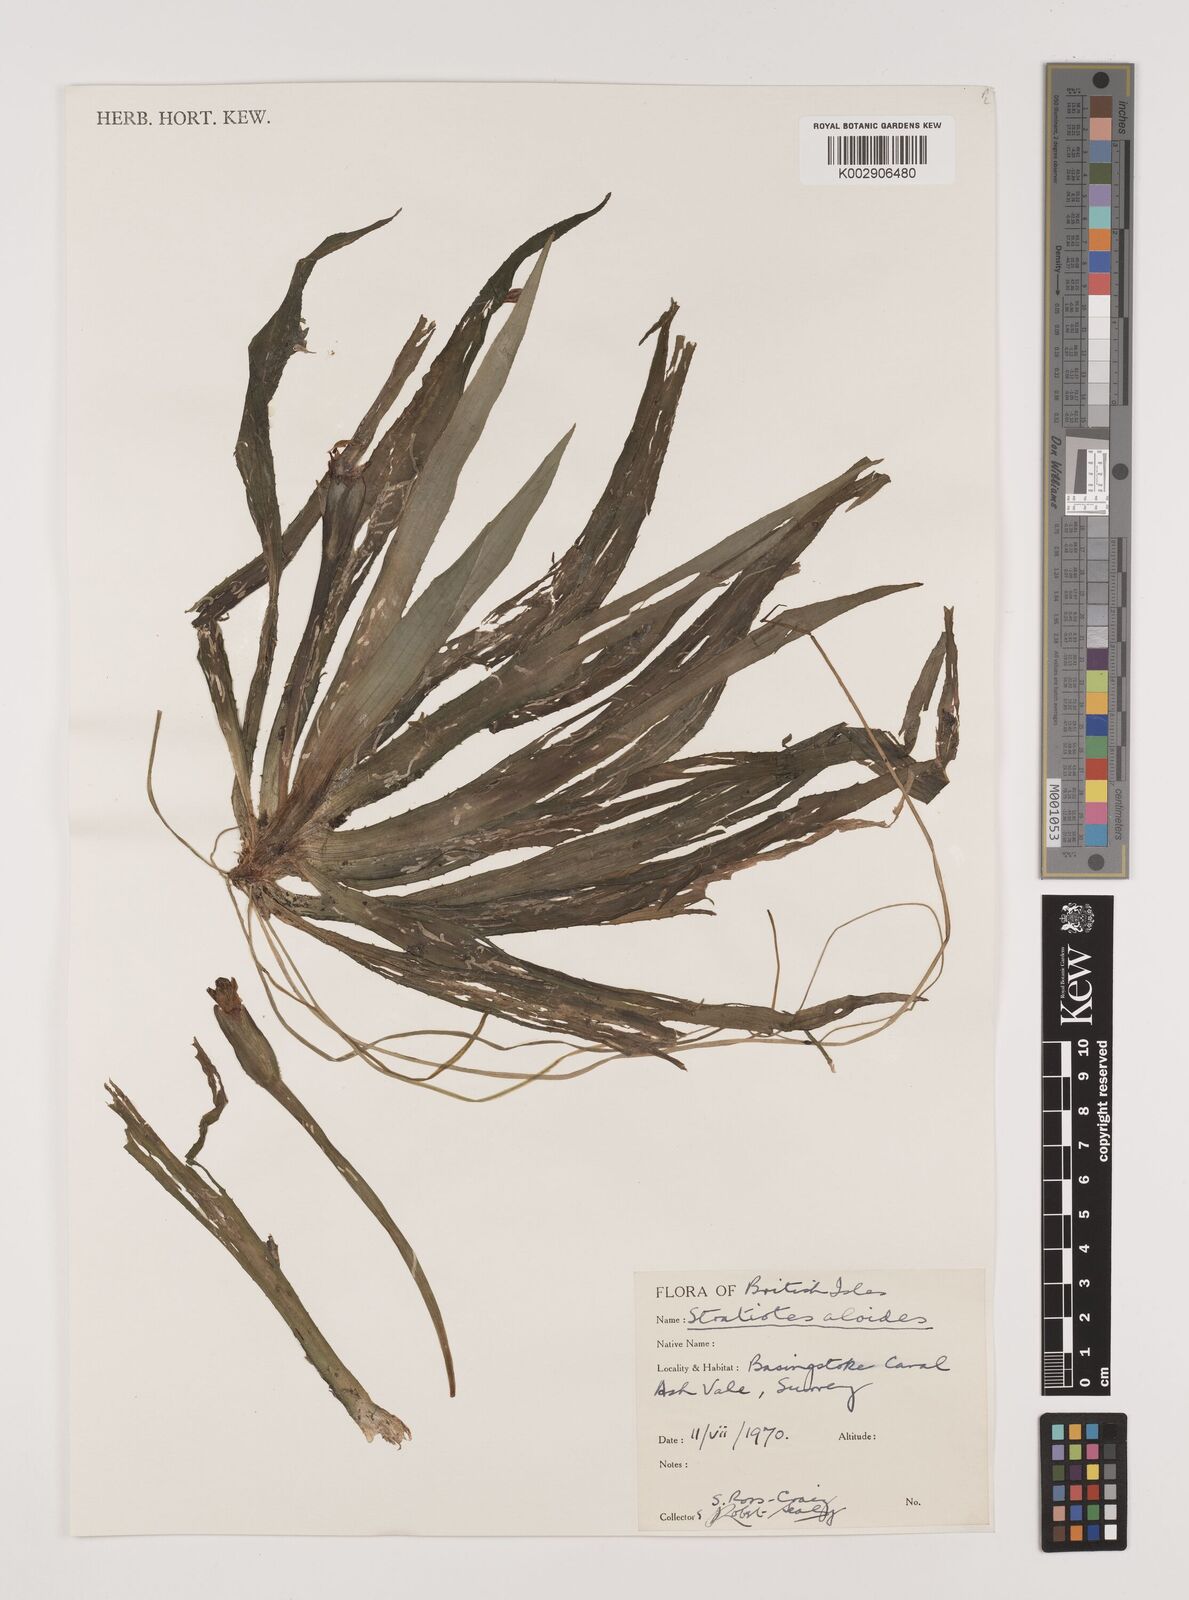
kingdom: Plantae
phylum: Tracheophyta
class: Liliopsida
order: Alismatales
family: Hydrocharitaceae
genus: Stratiotes
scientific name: Stratiotes aloides
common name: Water-soldier
